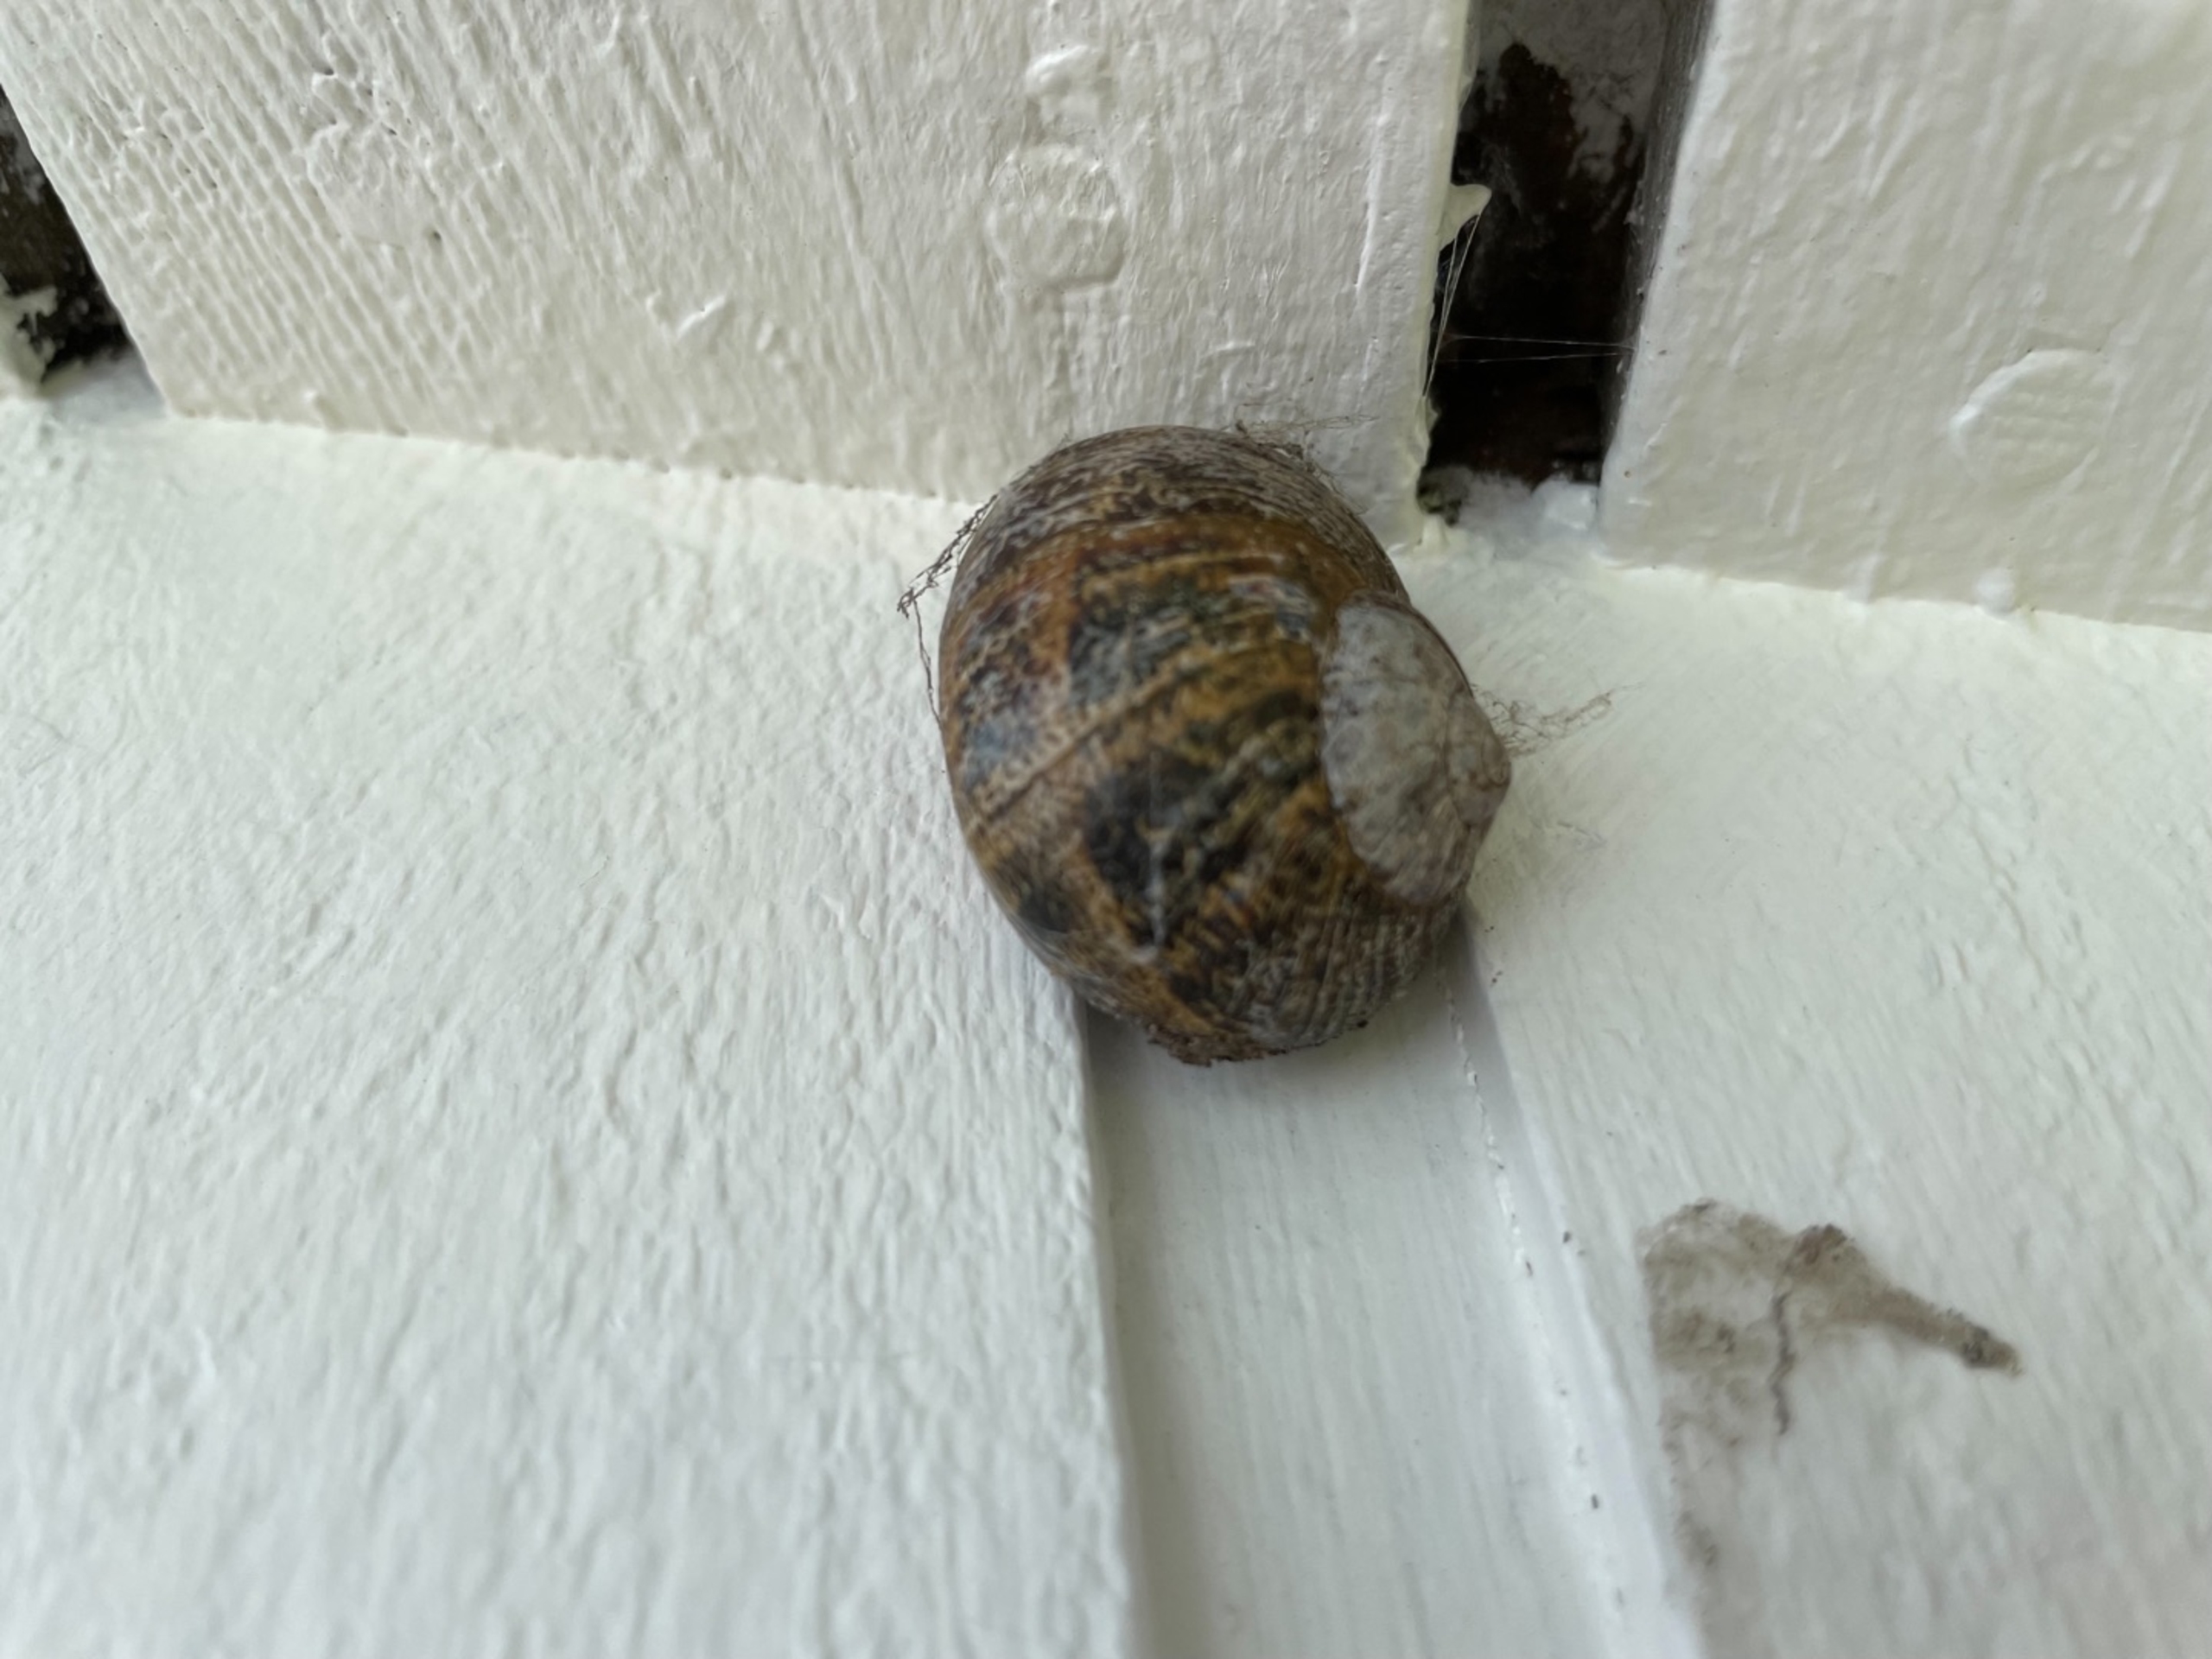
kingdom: Animalia
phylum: Mollusca
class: Gastropoda
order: Stylommatophora
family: Helicidae
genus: Cornu
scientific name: Cornu aspersum
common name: Plettet voldsnegl
